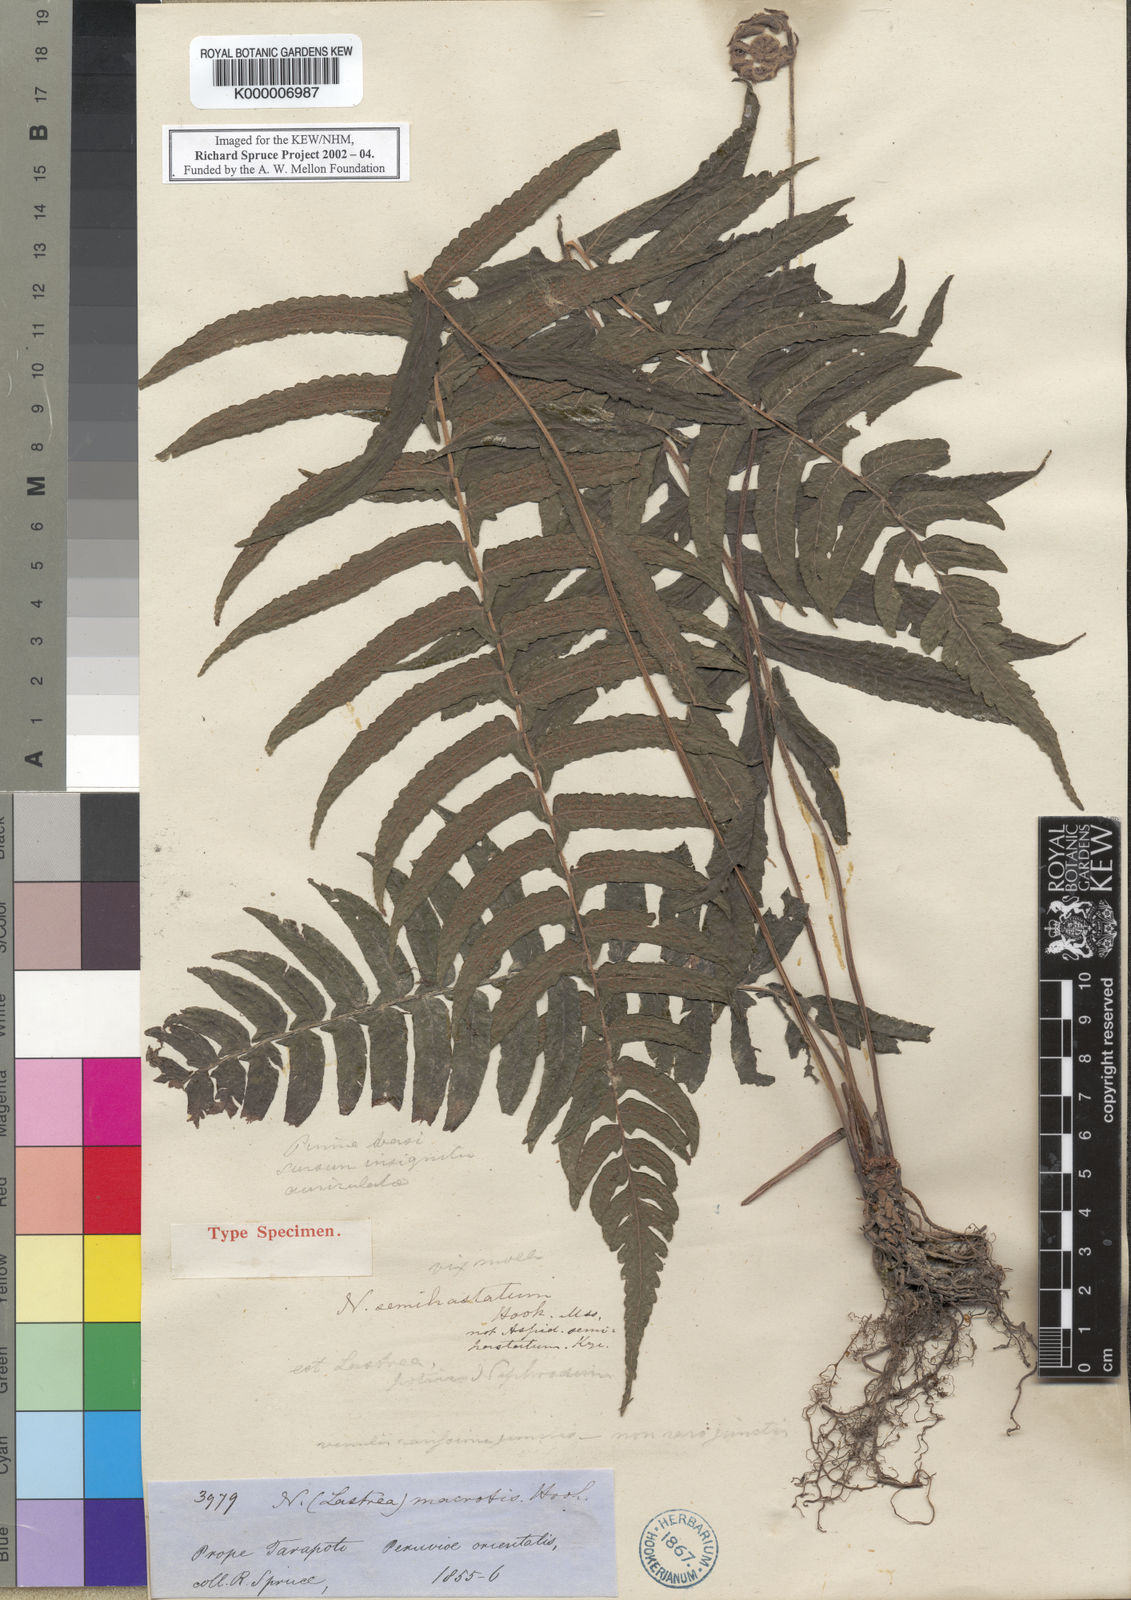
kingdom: Plantae
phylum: Tracheophyta
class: Polypodiopsida
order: Polypodiales
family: Thelypteridaceae
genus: Goniopteris
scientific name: Goniopteris macrotis
